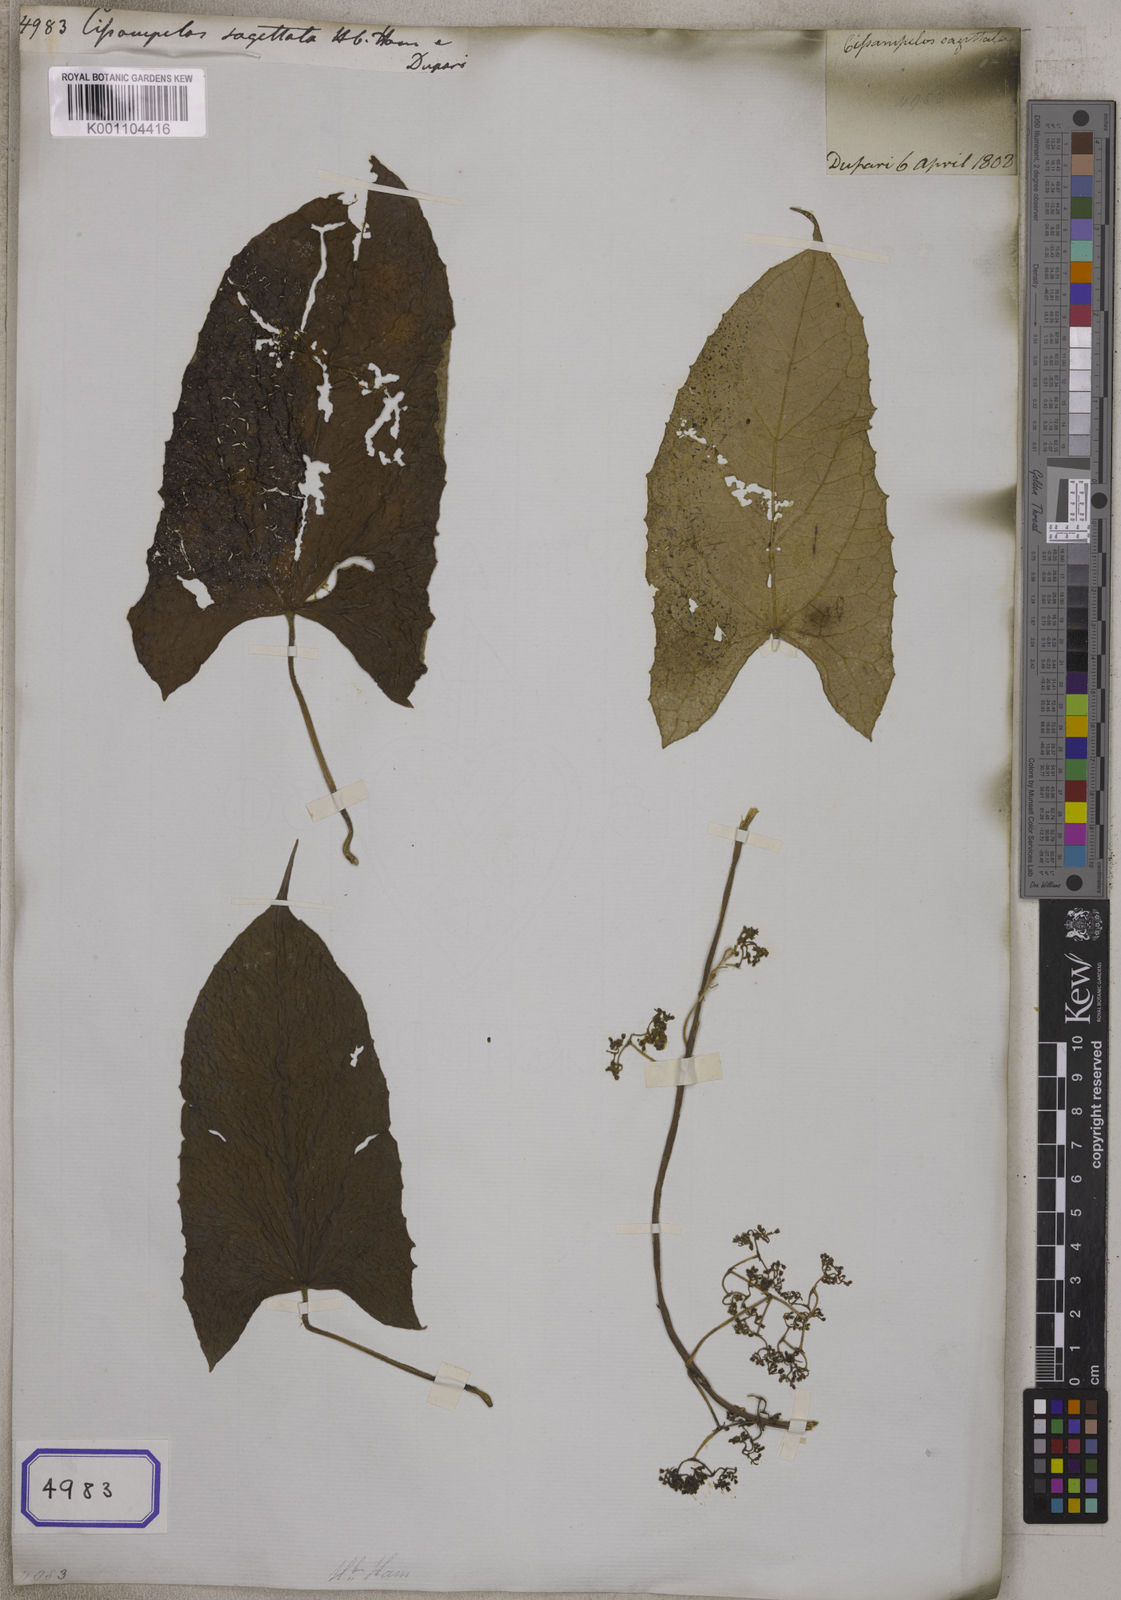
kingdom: Plantae
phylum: Tracheophyta
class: Magnoliopsida
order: Ranunculales
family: Menispermaceae
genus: Cissampelos
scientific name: Cissampelos
